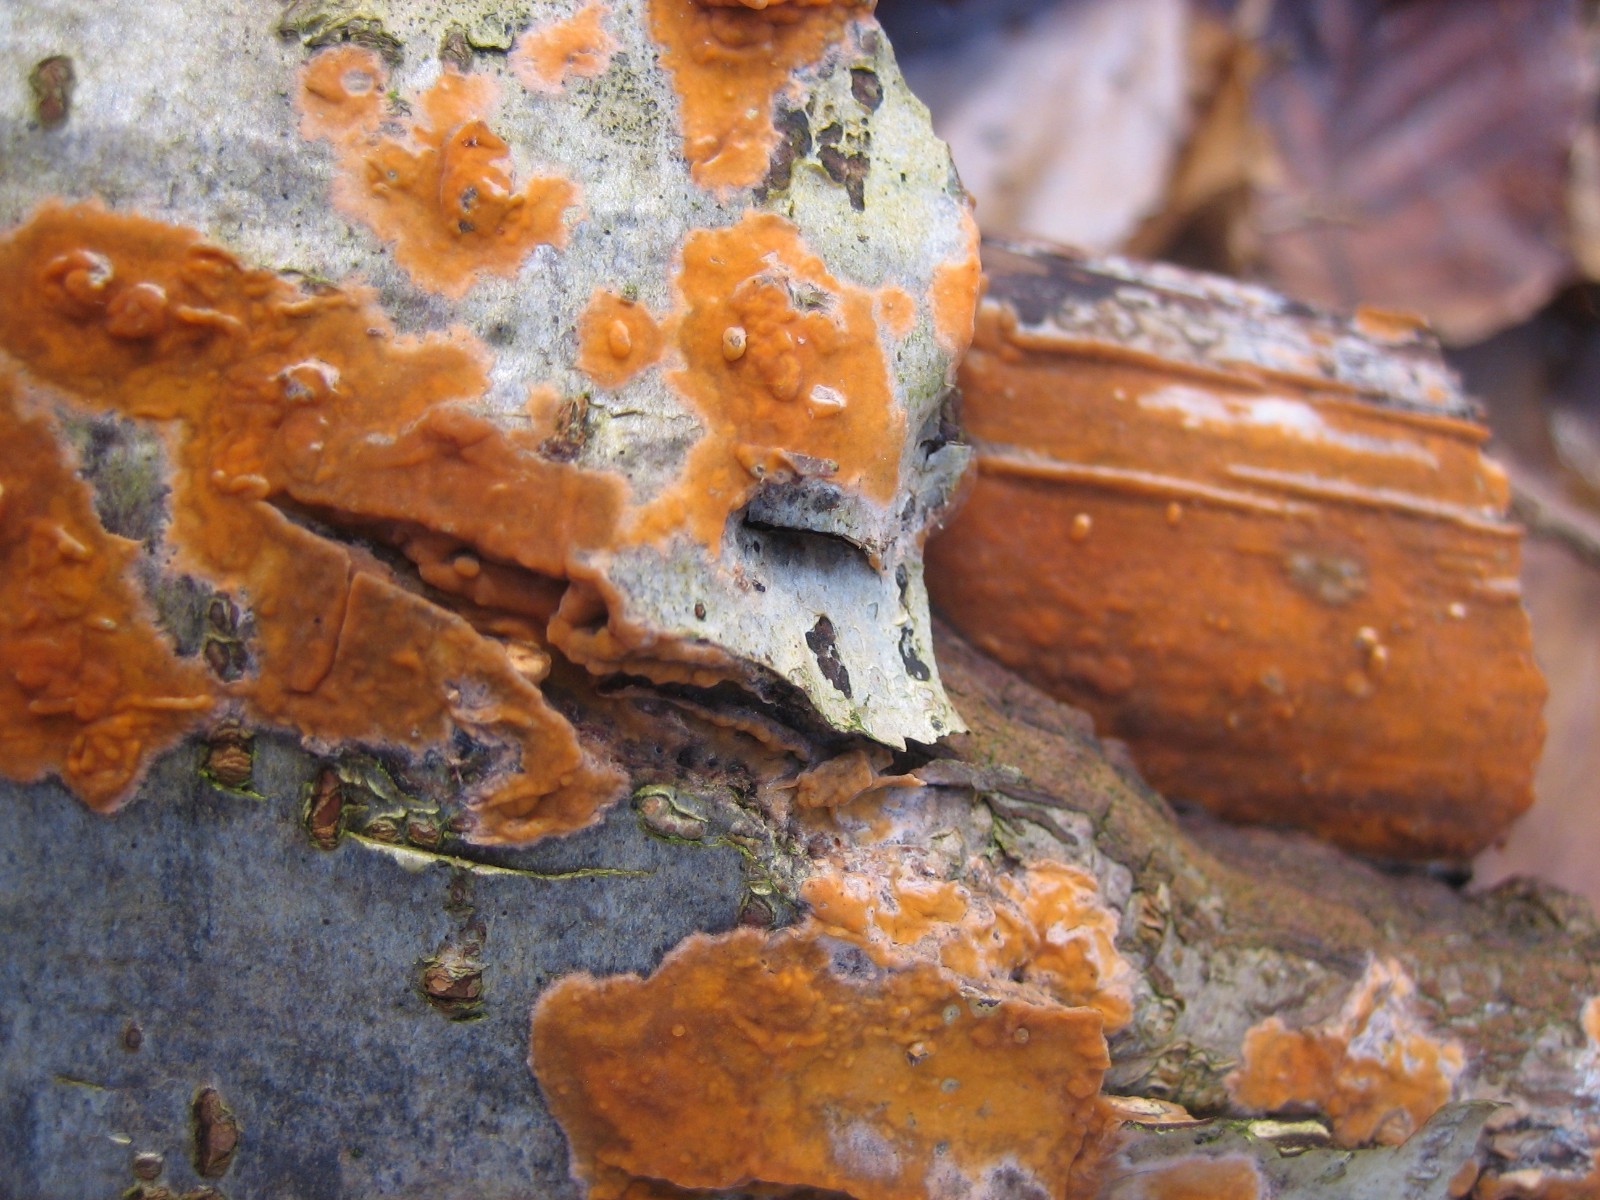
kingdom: Fungi
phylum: Basidiomycota
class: Agaricomycetes
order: Russulales
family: Peniophoraceae
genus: Peniophora
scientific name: Peniophora incarnata
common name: laksefarvet voksskind
